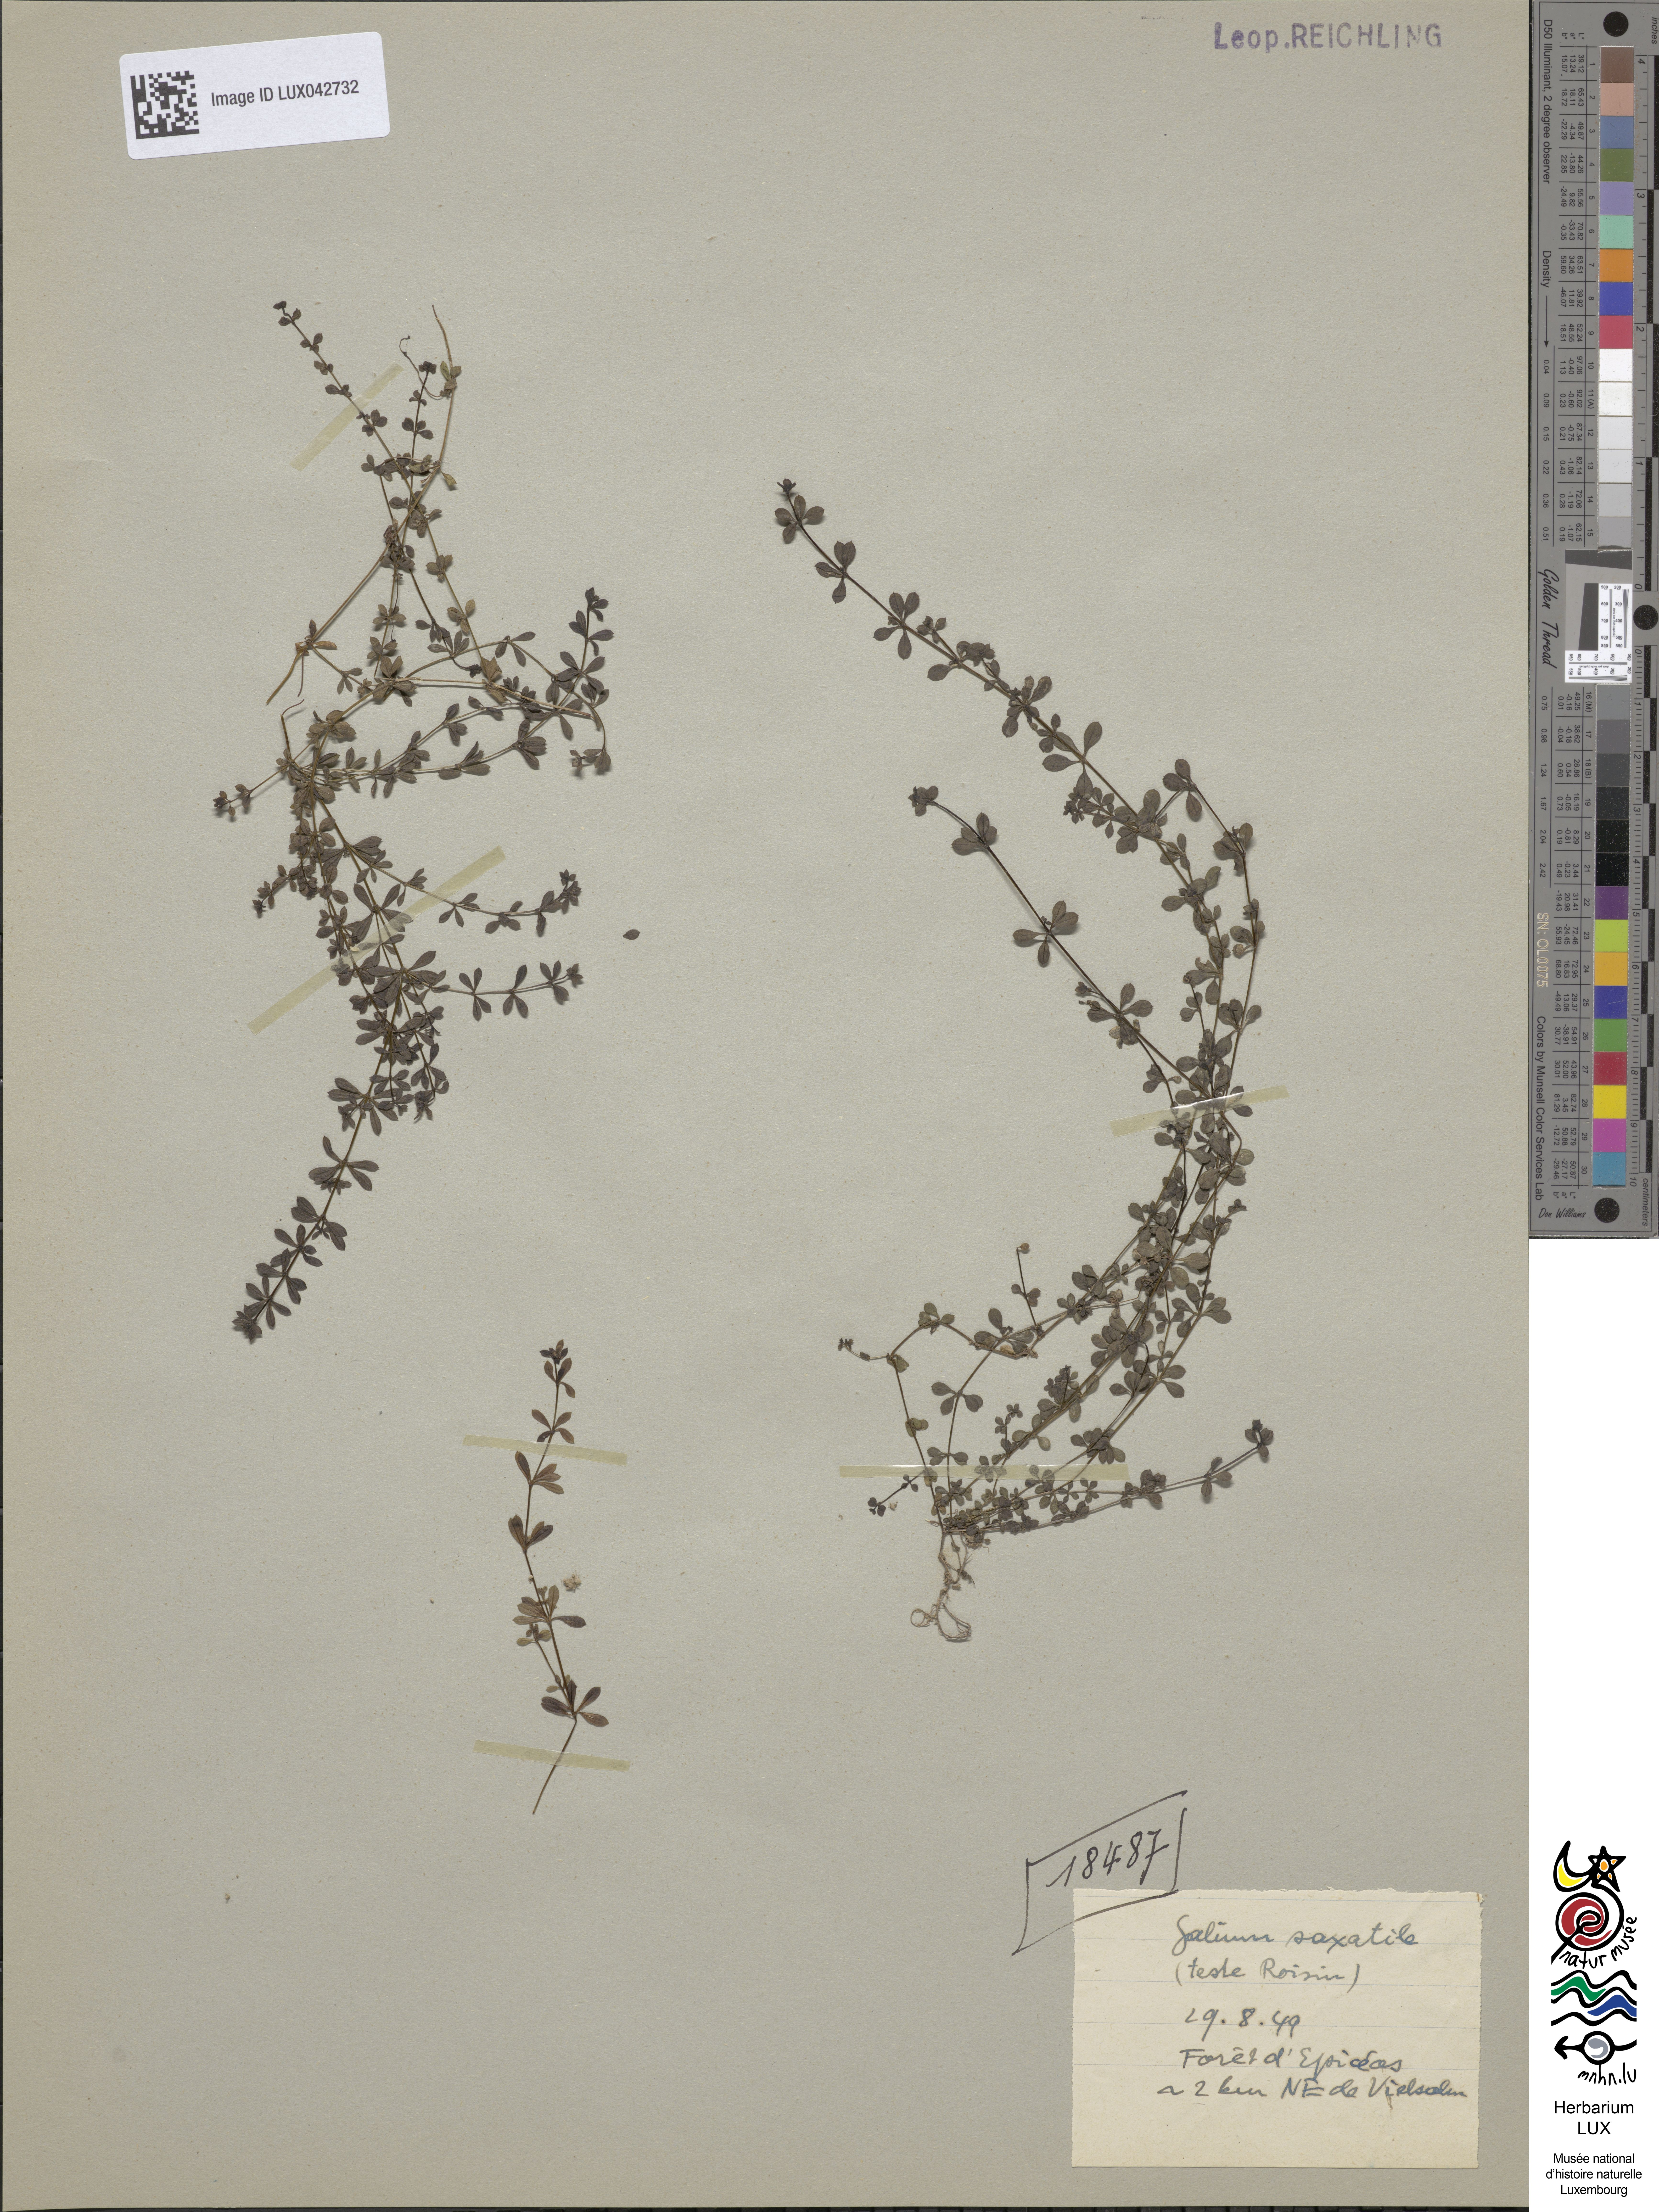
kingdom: Plantae
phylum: Tracheophyta
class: Magnoliopsida
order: Gentianales
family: Rubiaceae
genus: Galium
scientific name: Galium saxatile
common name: Heath bedstraw
